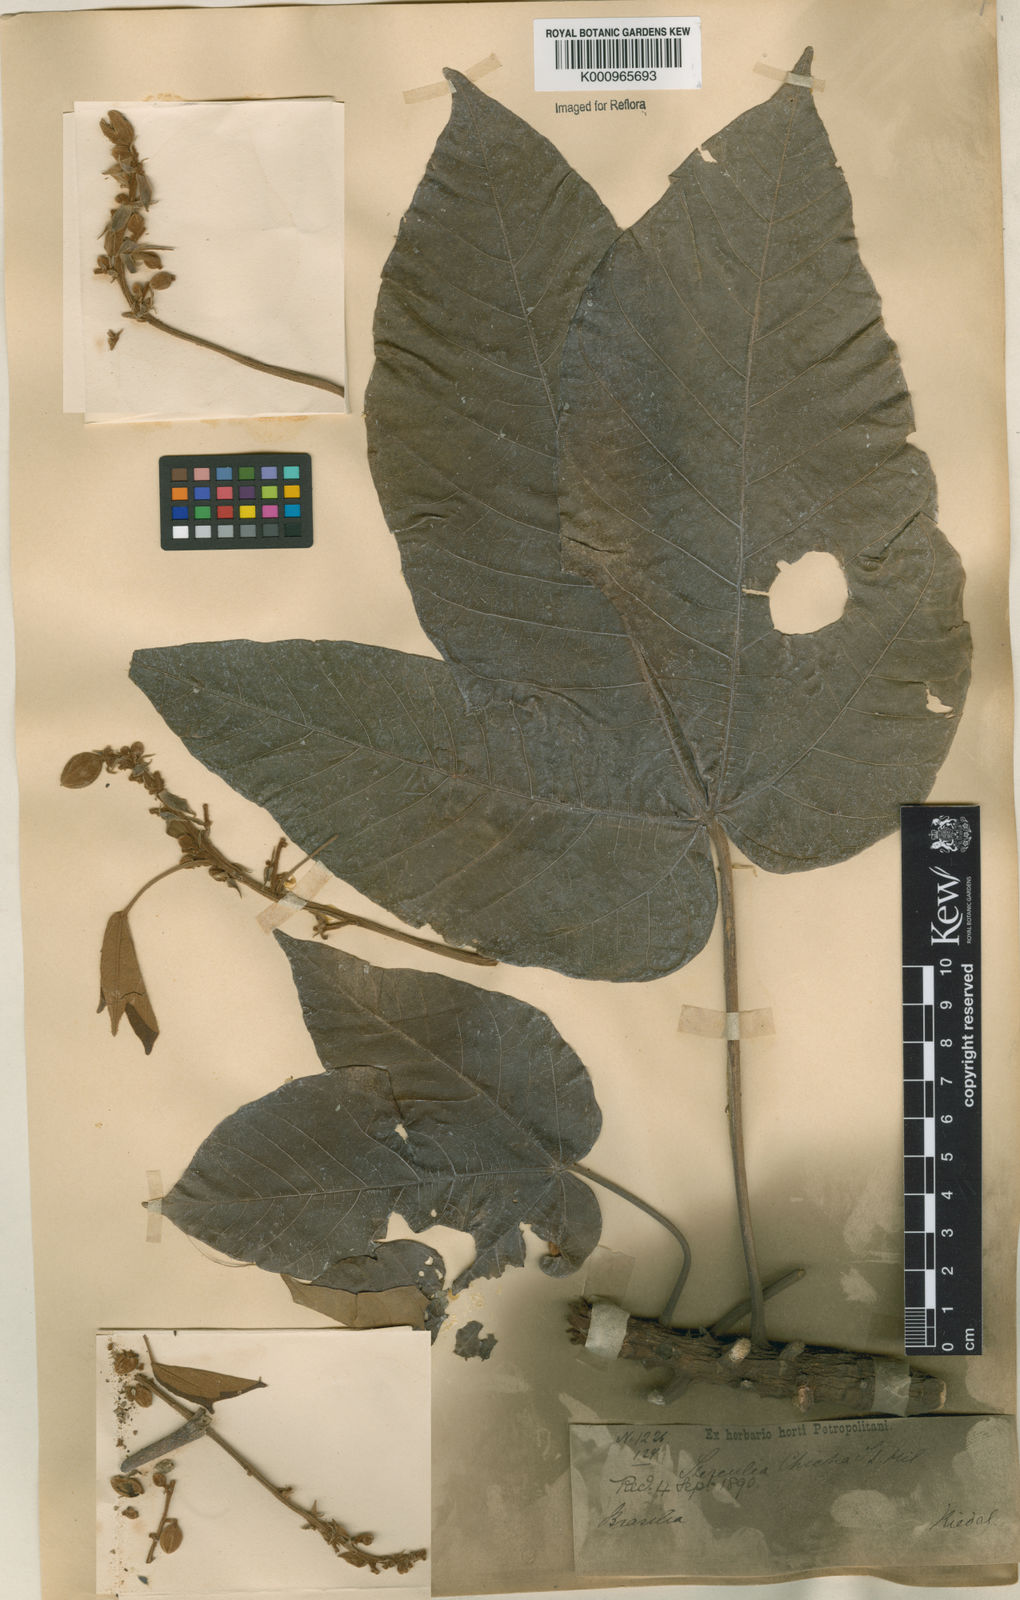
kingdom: Plantae
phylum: Tracheophyta
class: Magnoliopsida
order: Malvales
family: Malvaceae
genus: Sterculia
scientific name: Sterculia apetala
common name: Panama tree
